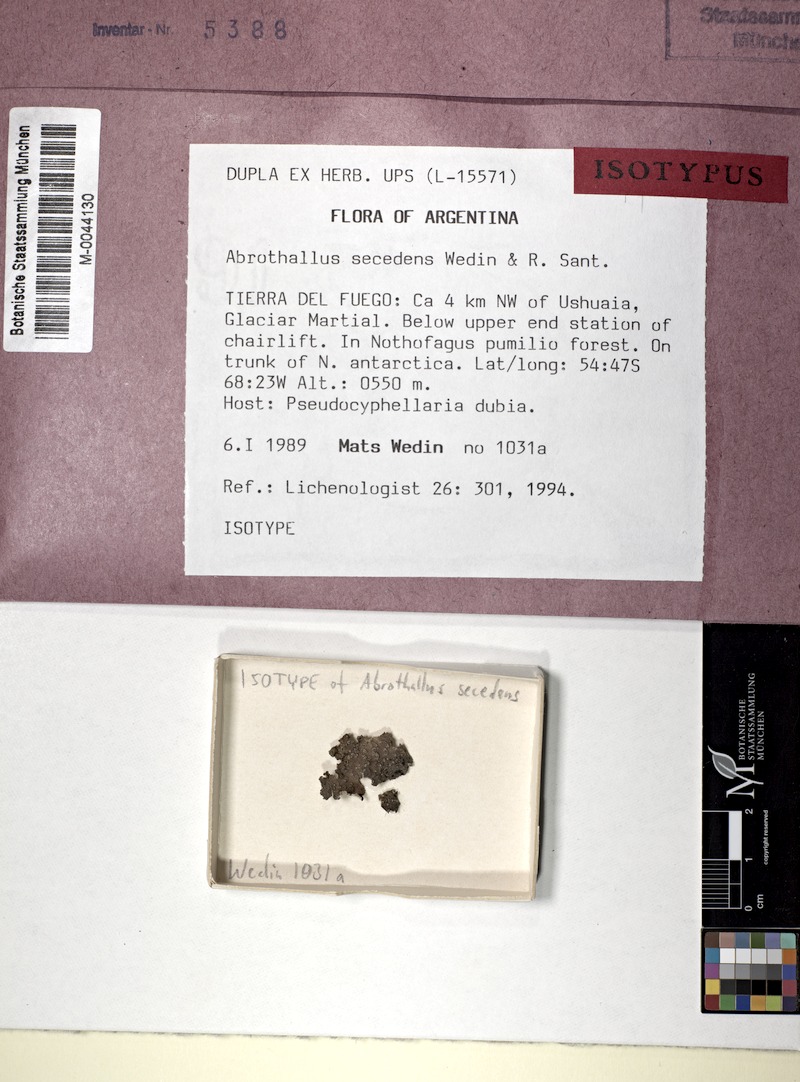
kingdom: Fungi
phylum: Ascomycota
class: Lecanoromycetes
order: Peltigerales
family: Lobariaceae
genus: Pseudocyphellaria
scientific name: Pseudocyphellaria dubia
